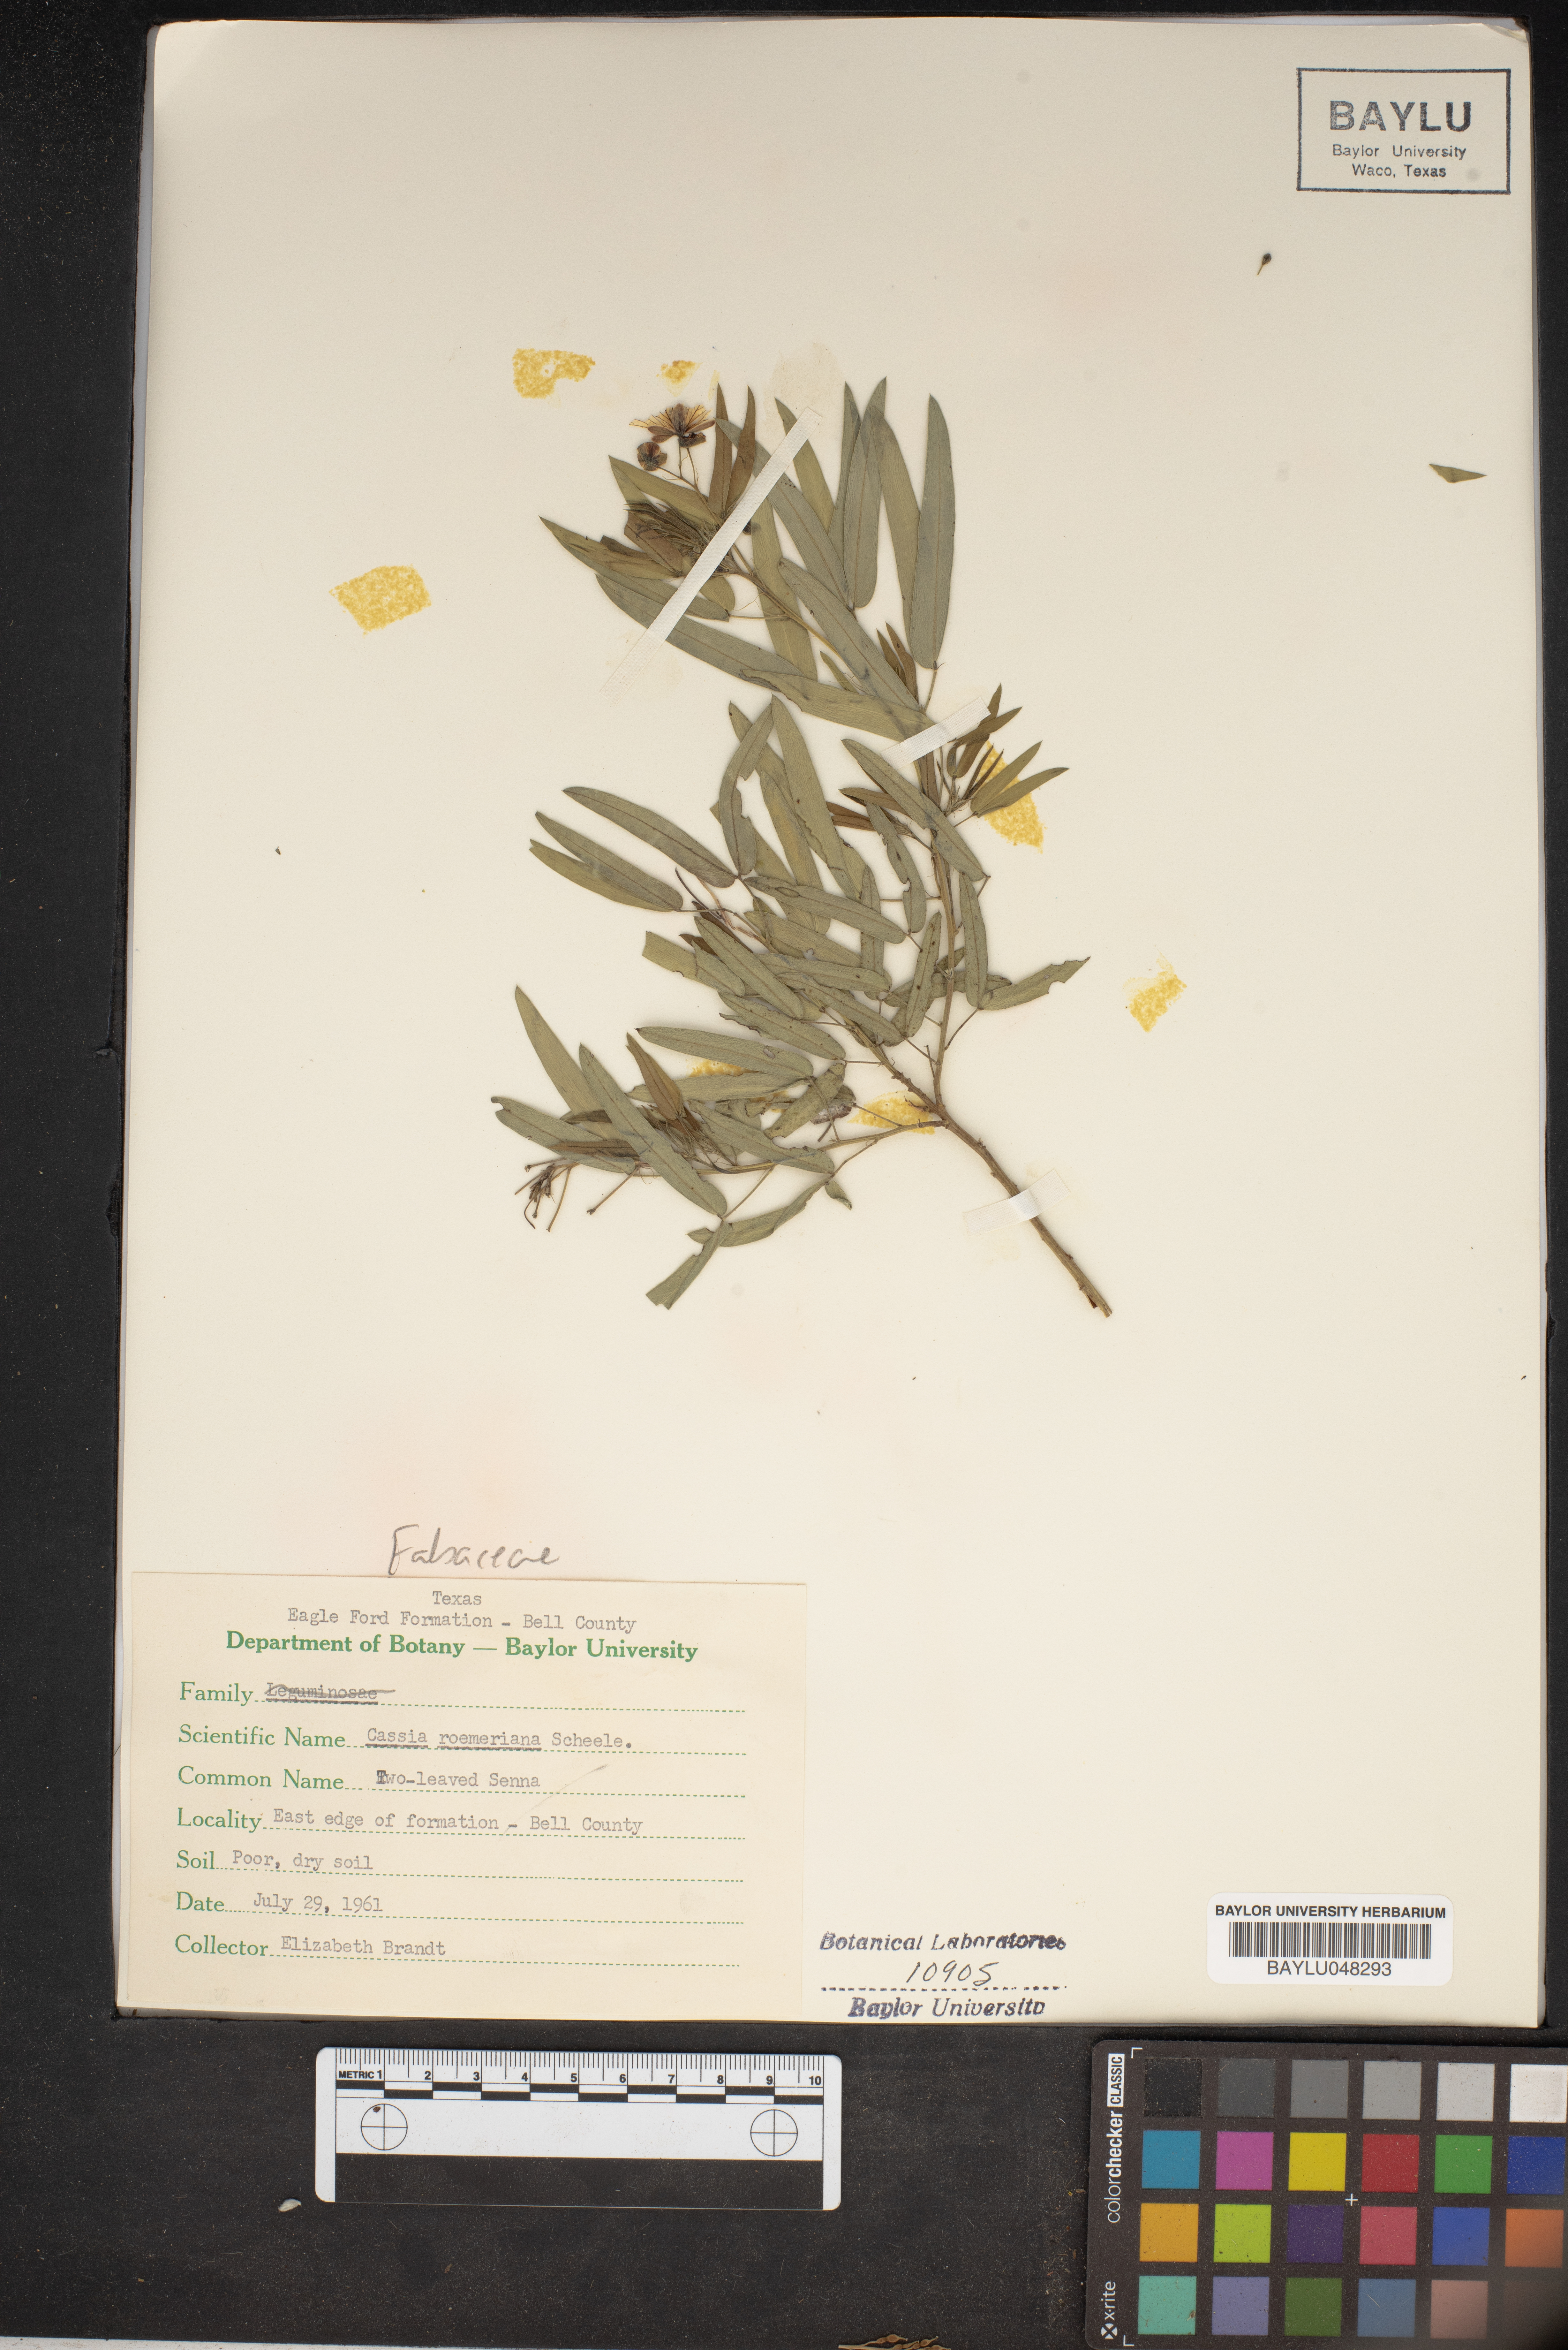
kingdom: Plantae
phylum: Tracheophyta
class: Magnoliopsida
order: Fabales
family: Fabaceae
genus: Senna
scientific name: Senna roemeriana
